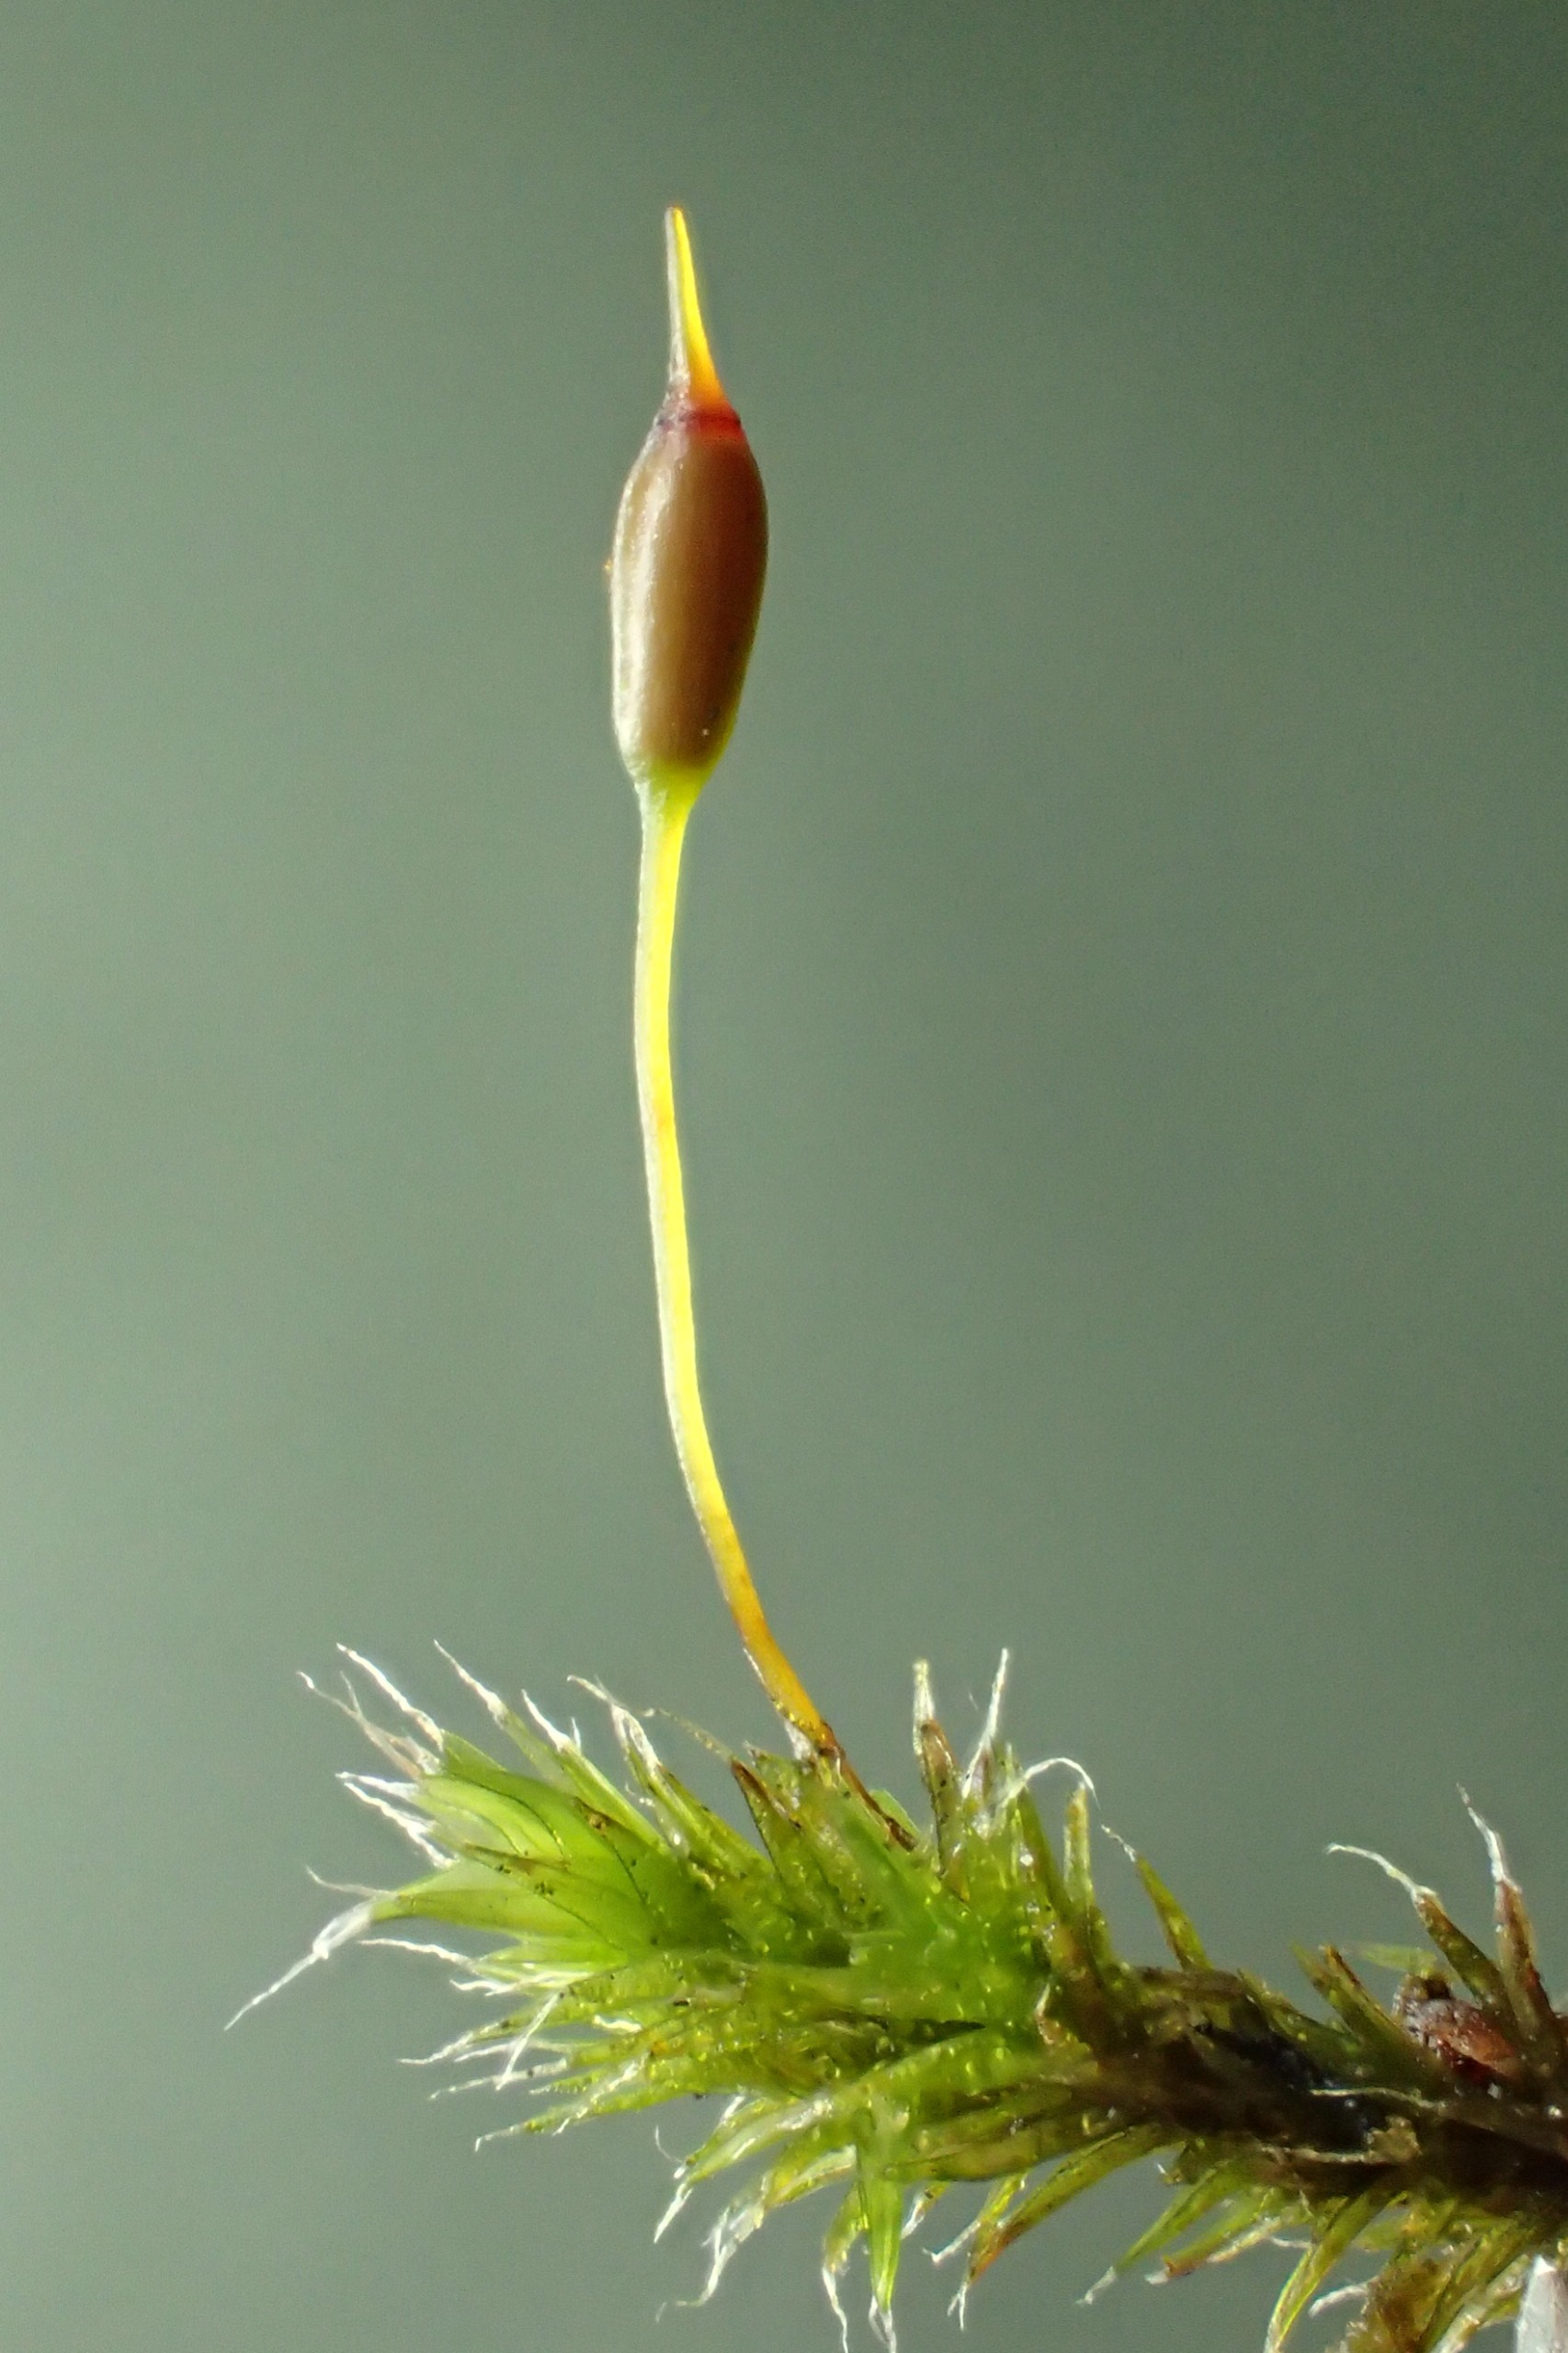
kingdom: Plantae
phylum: Bryophyta
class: Bryopsida
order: Grimmiales
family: Grimmiaceae
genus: Bucklandiella
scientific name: Bucklandiella heterosticha
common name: Sten-børstemos
